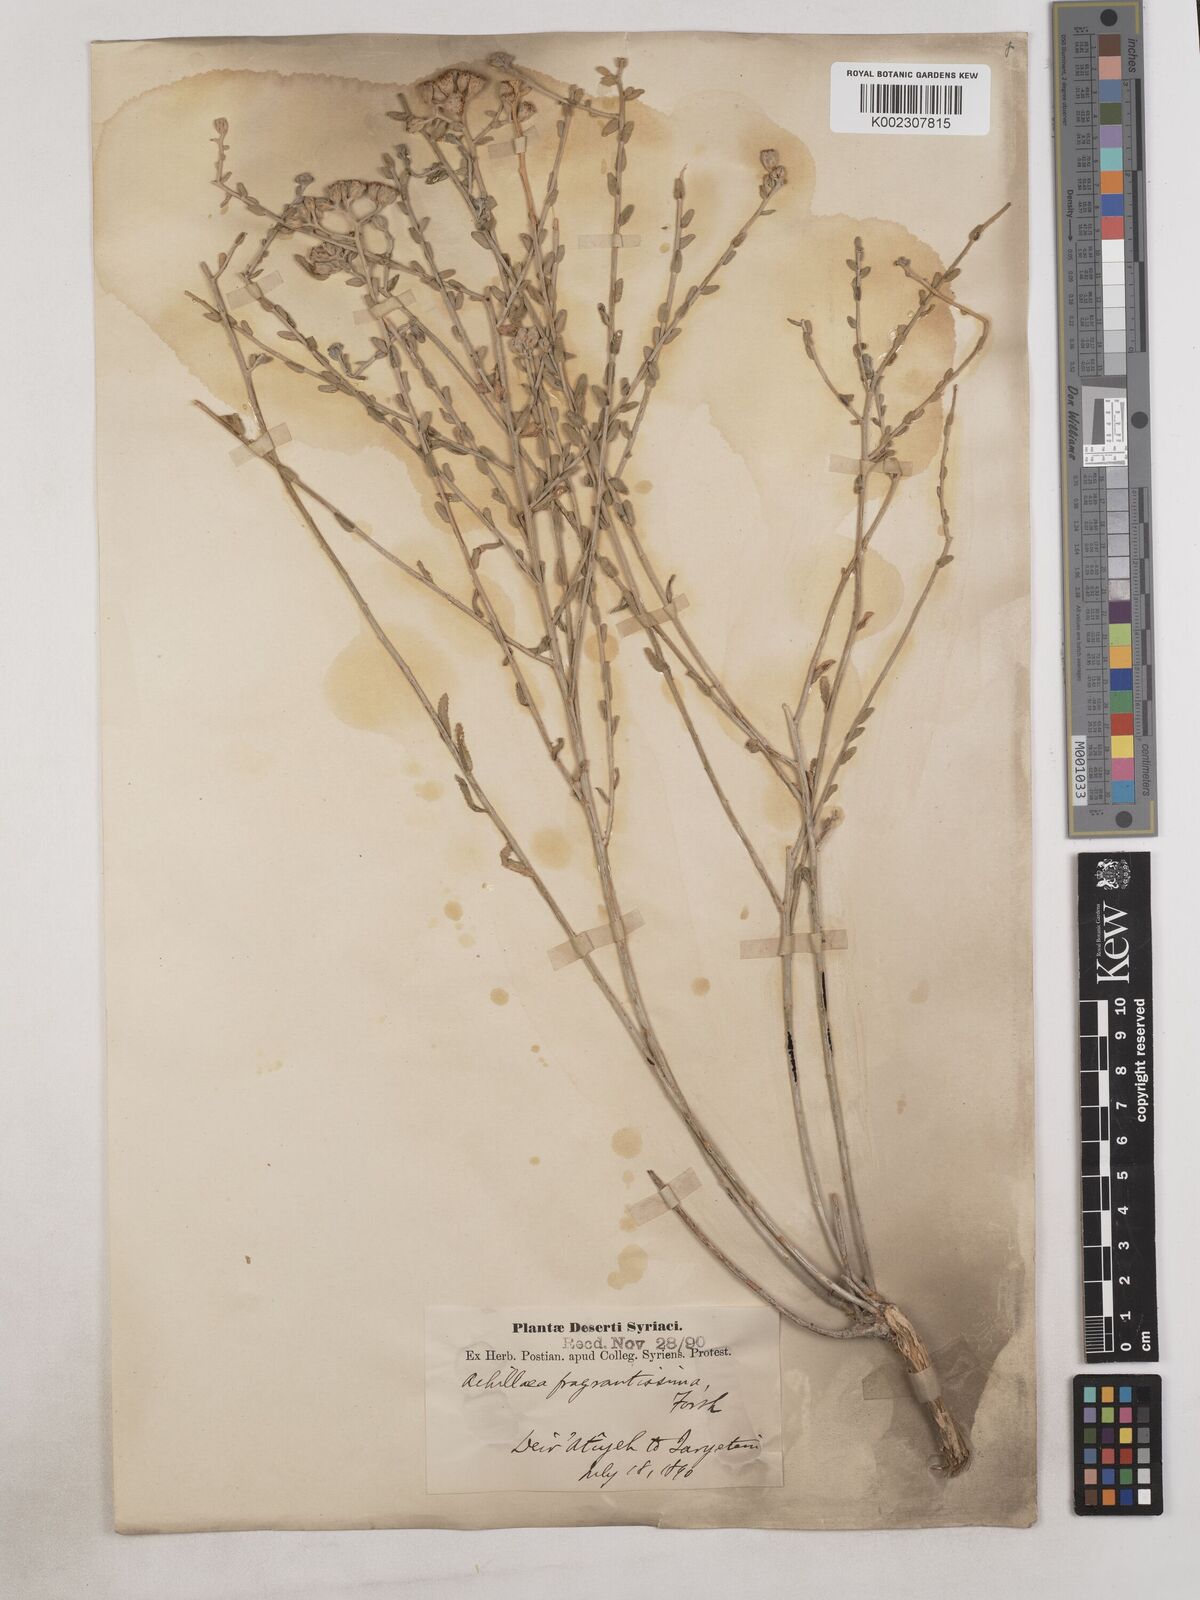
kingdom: Plantae
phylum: Tracheophyta
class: Magnoliopsida
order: Asterales
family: Asteraceae
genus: Achillea
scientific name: Achillea fragrantissima
